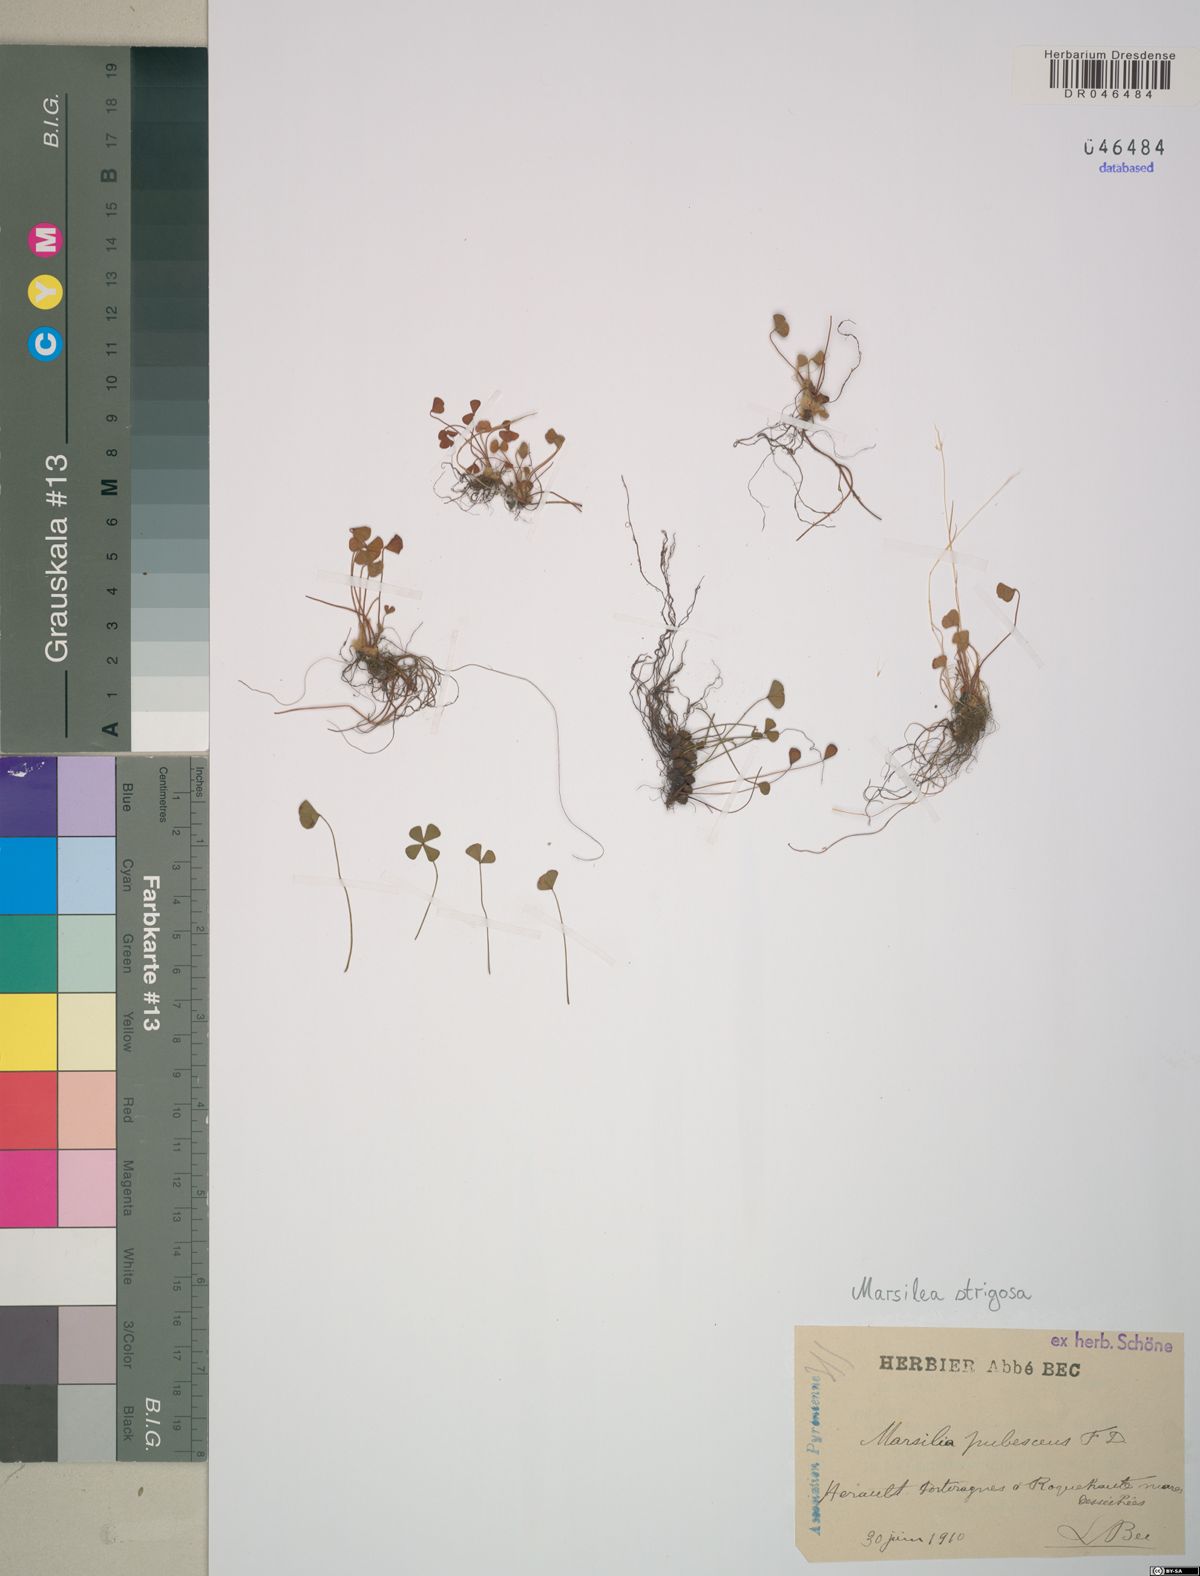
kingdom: Plantae
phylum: Tracheophyta
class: Polypodiopsida
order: Salviniales
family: Marsileaceae
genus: Marsilea
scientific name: Marsilea strigosa
